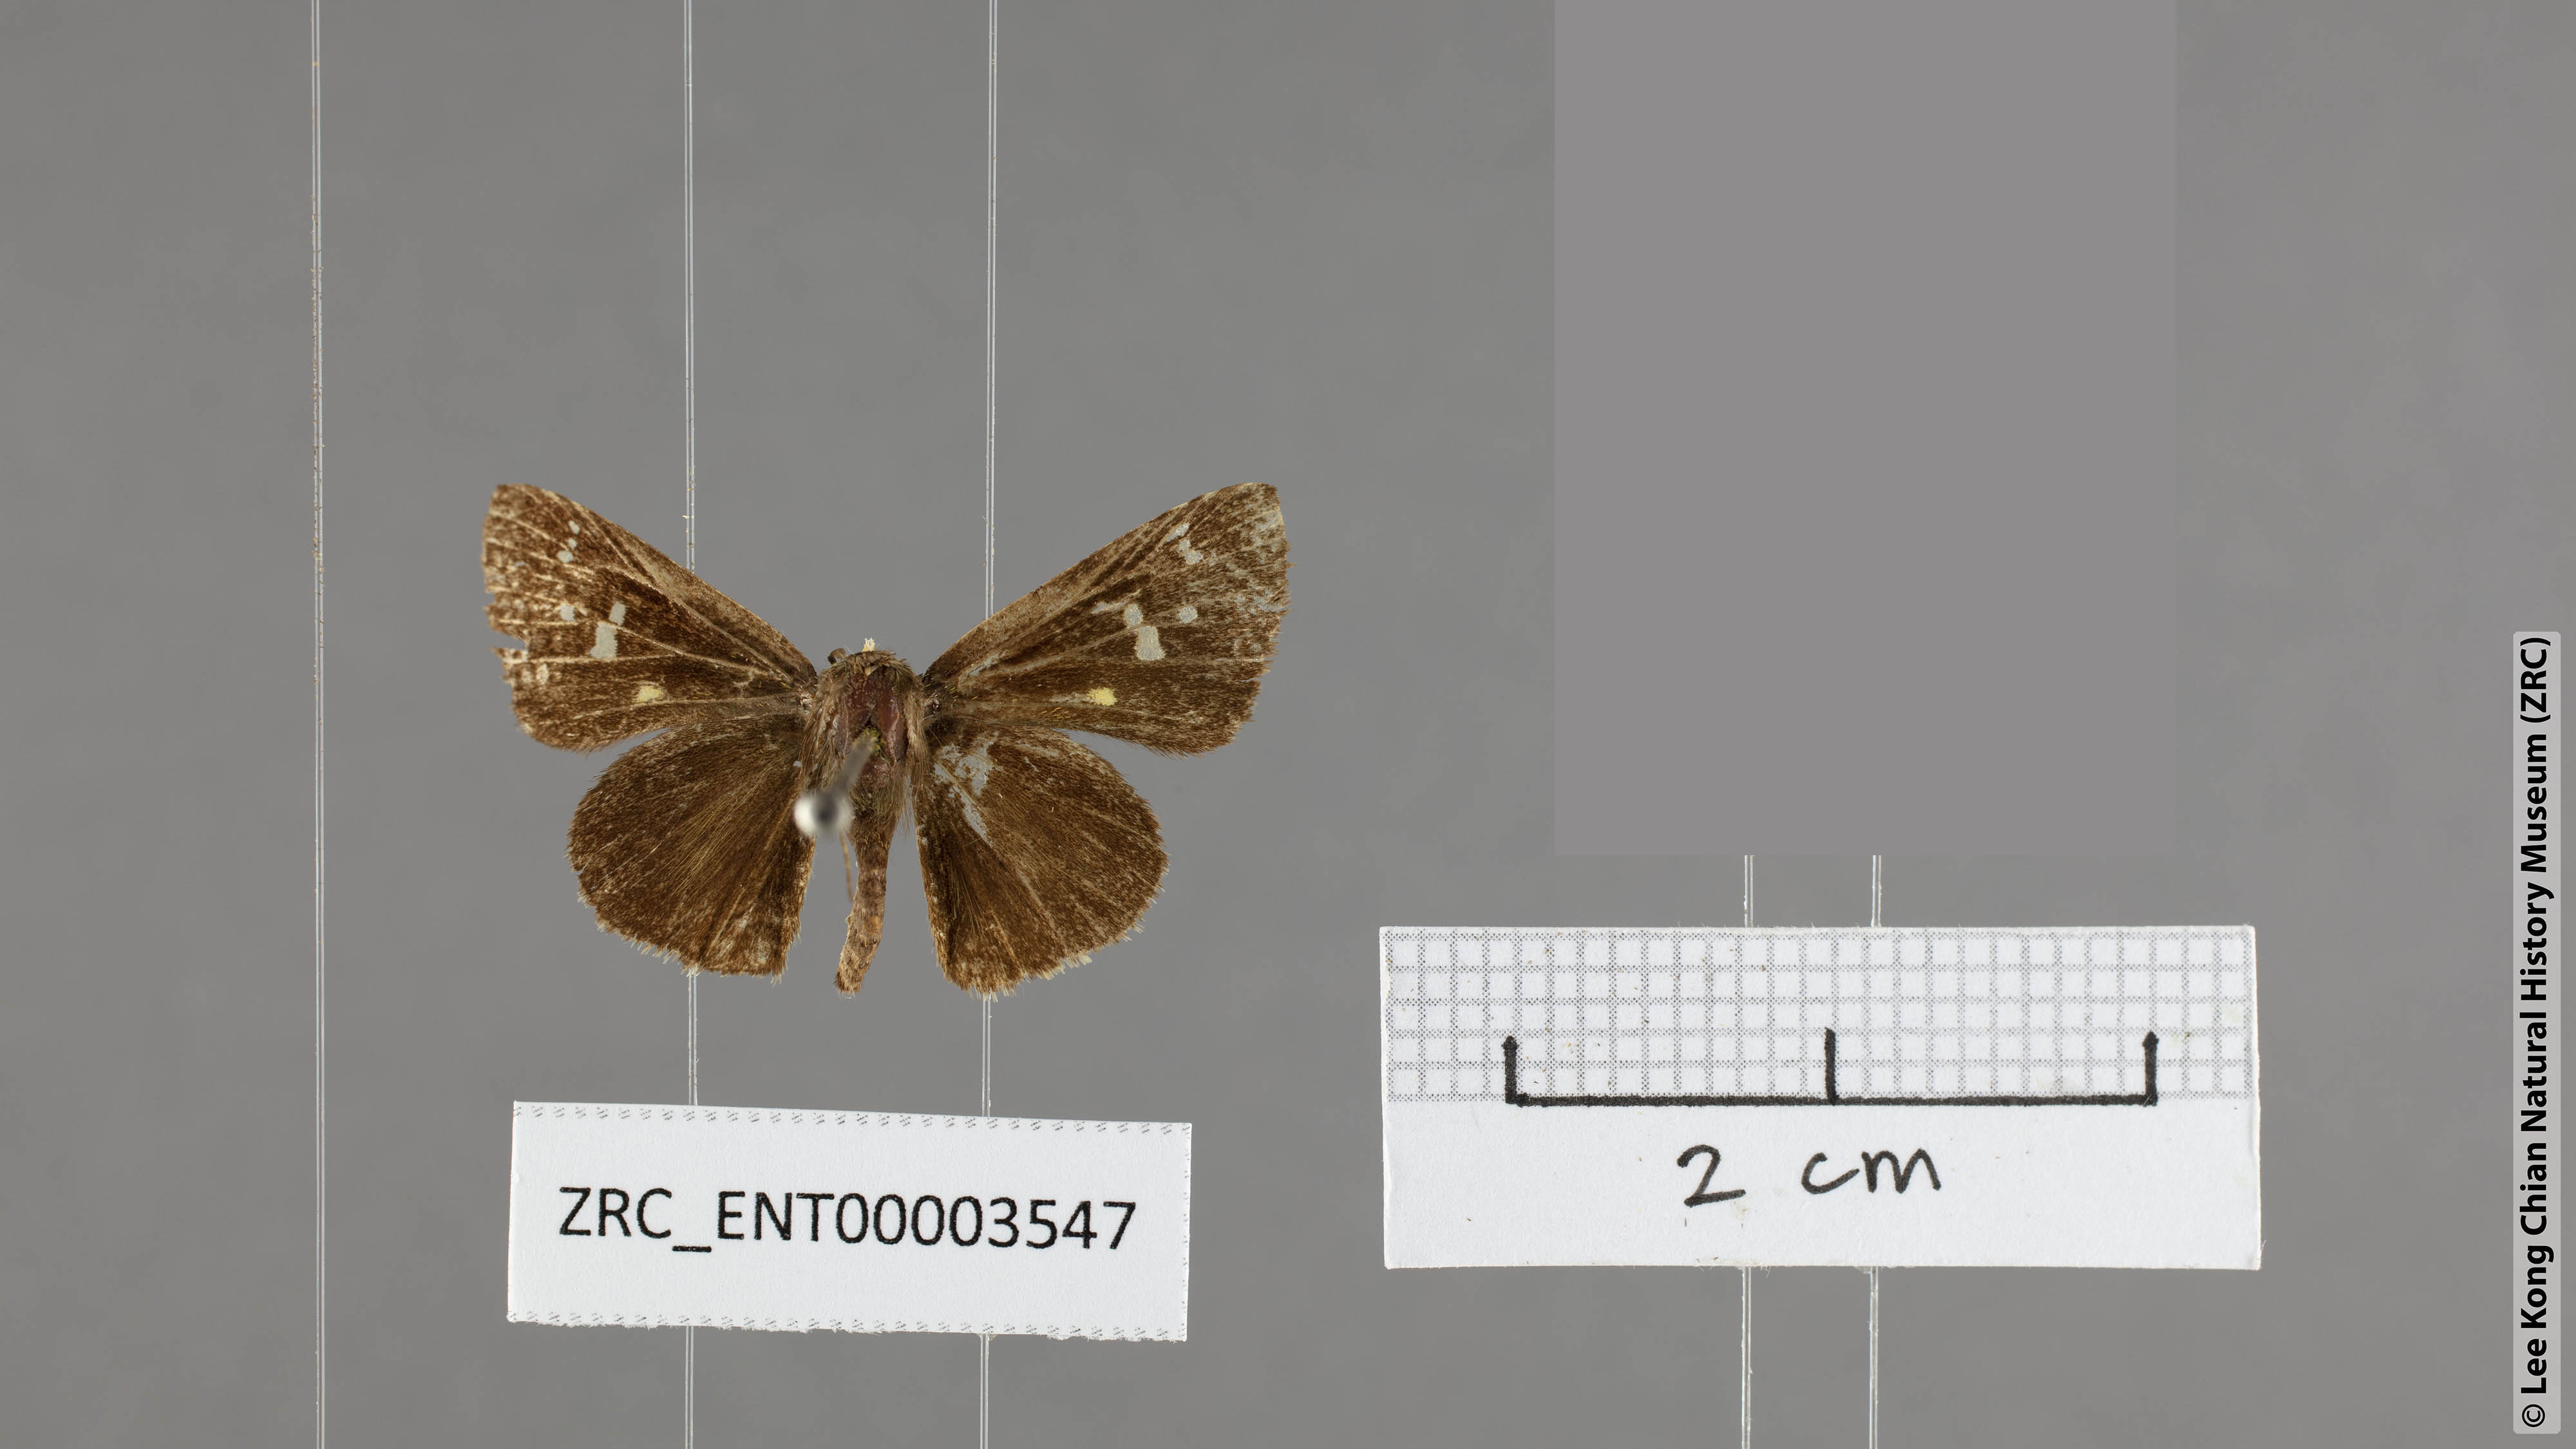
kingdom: Animalia
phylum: Arthropoda
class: Insecta
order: Lepidoptera
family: Hesperiidae
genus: Scobura
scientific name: Scobura woolletti
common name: Brown forest bob
